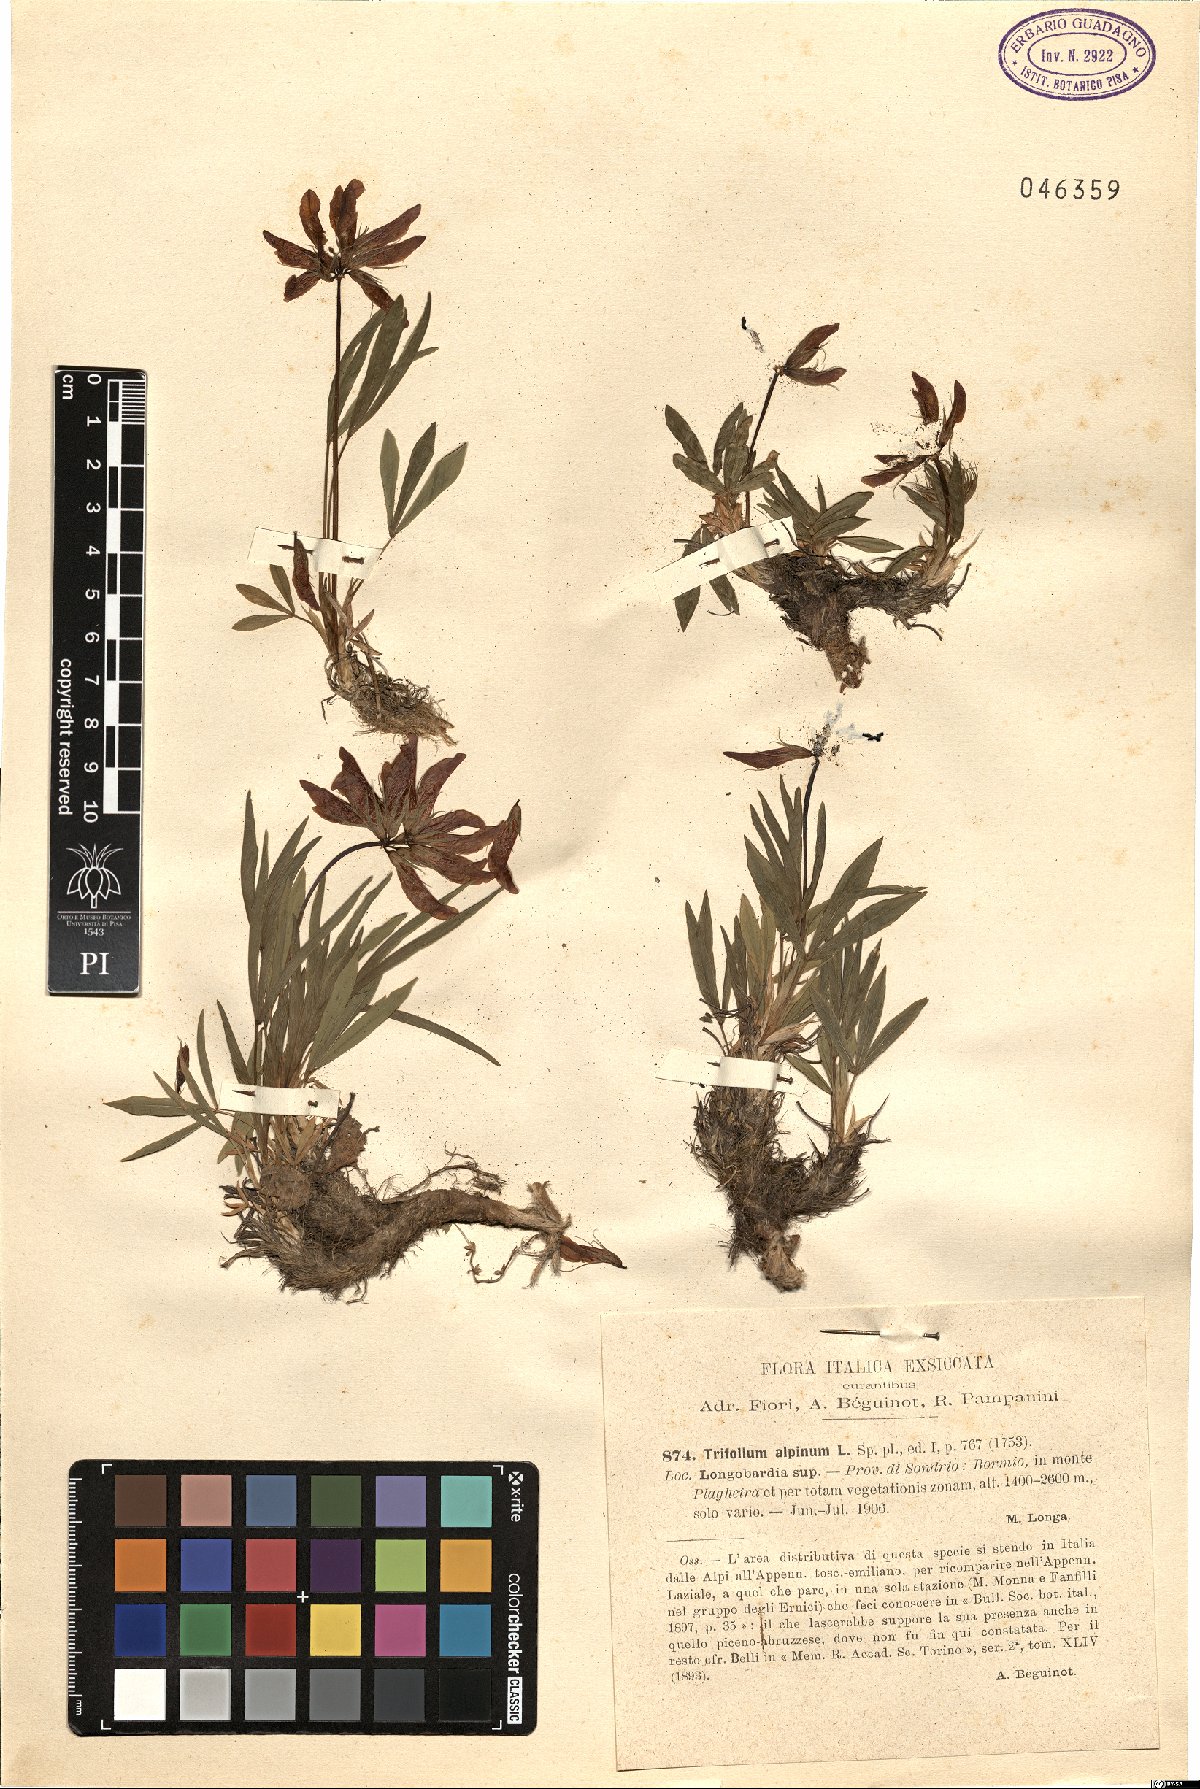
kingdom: Plantae
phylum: Tracheophyta
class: Magnoliopsida
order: Fabales
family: Fabaceae
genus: Trifolium
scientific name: Trifolium alpinum
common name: Alpine clover
